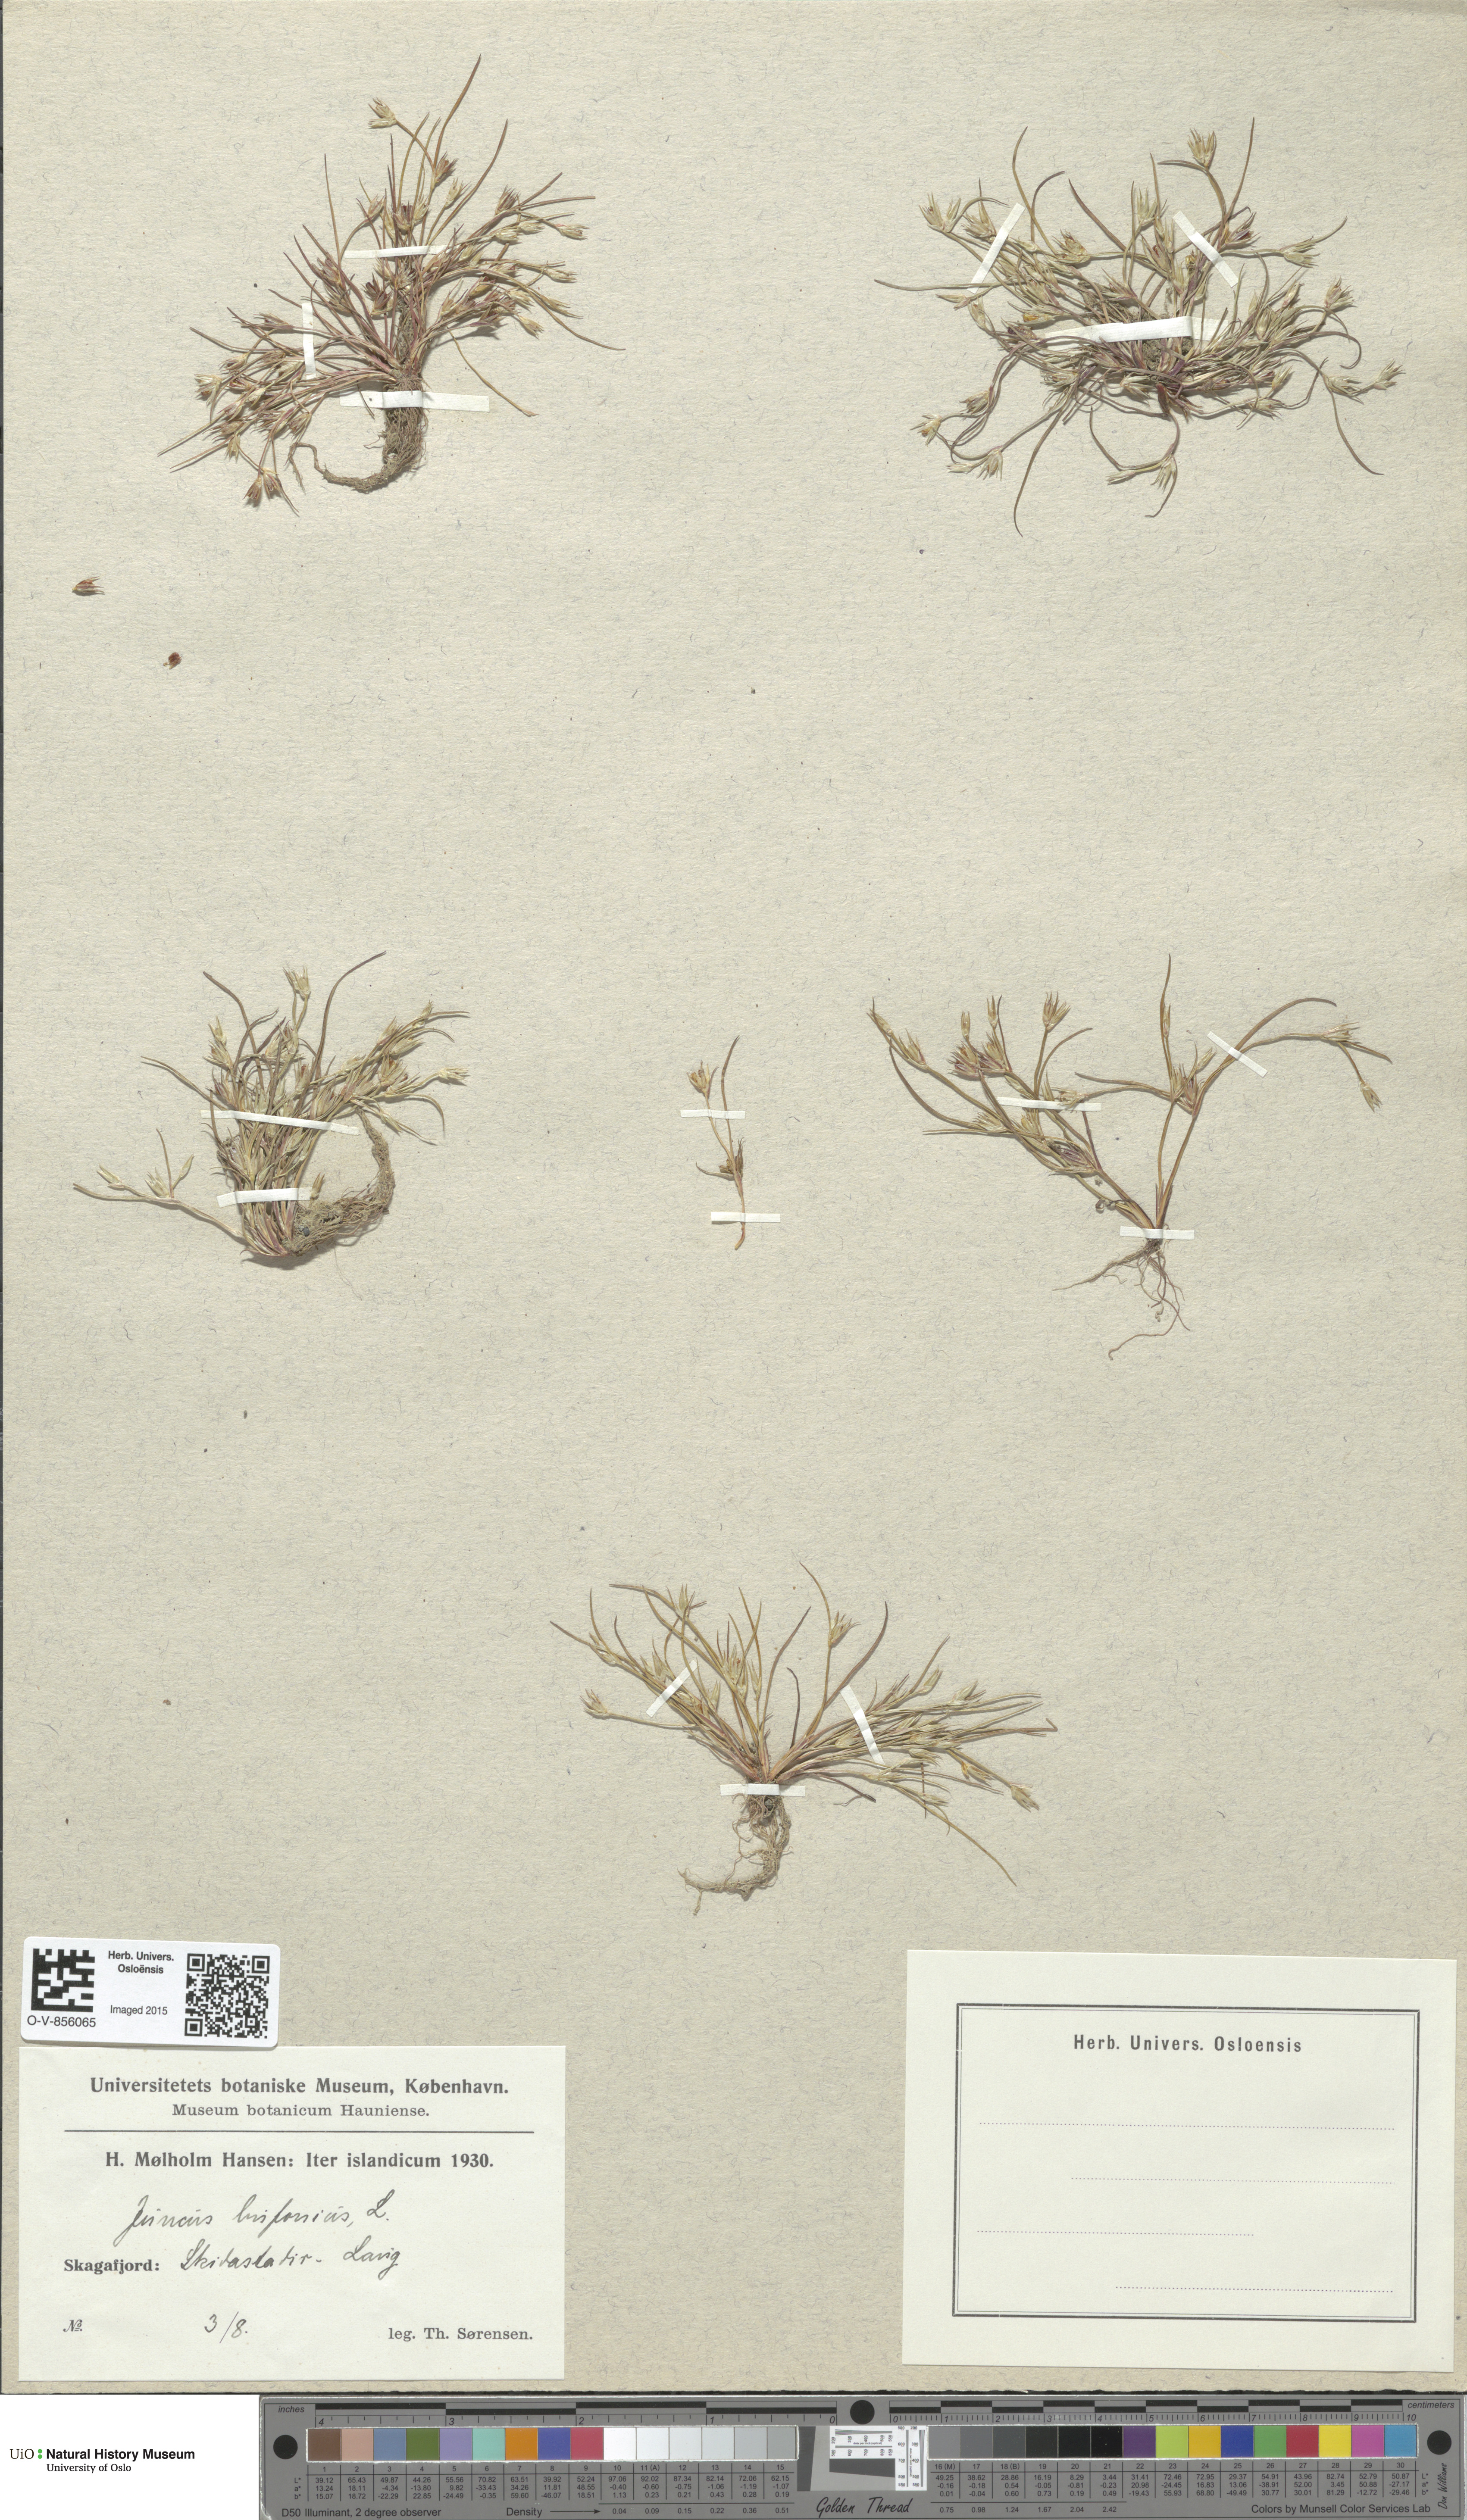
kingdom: Plantae
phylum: Tracheophyta
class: Liliopsida
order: Poales
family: Juncaceae
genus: Juncus
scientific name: Juncus bufonius
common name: Toad rush
